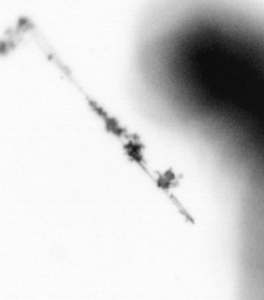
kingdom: Animalia
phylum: Chordata
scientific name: Chordata
